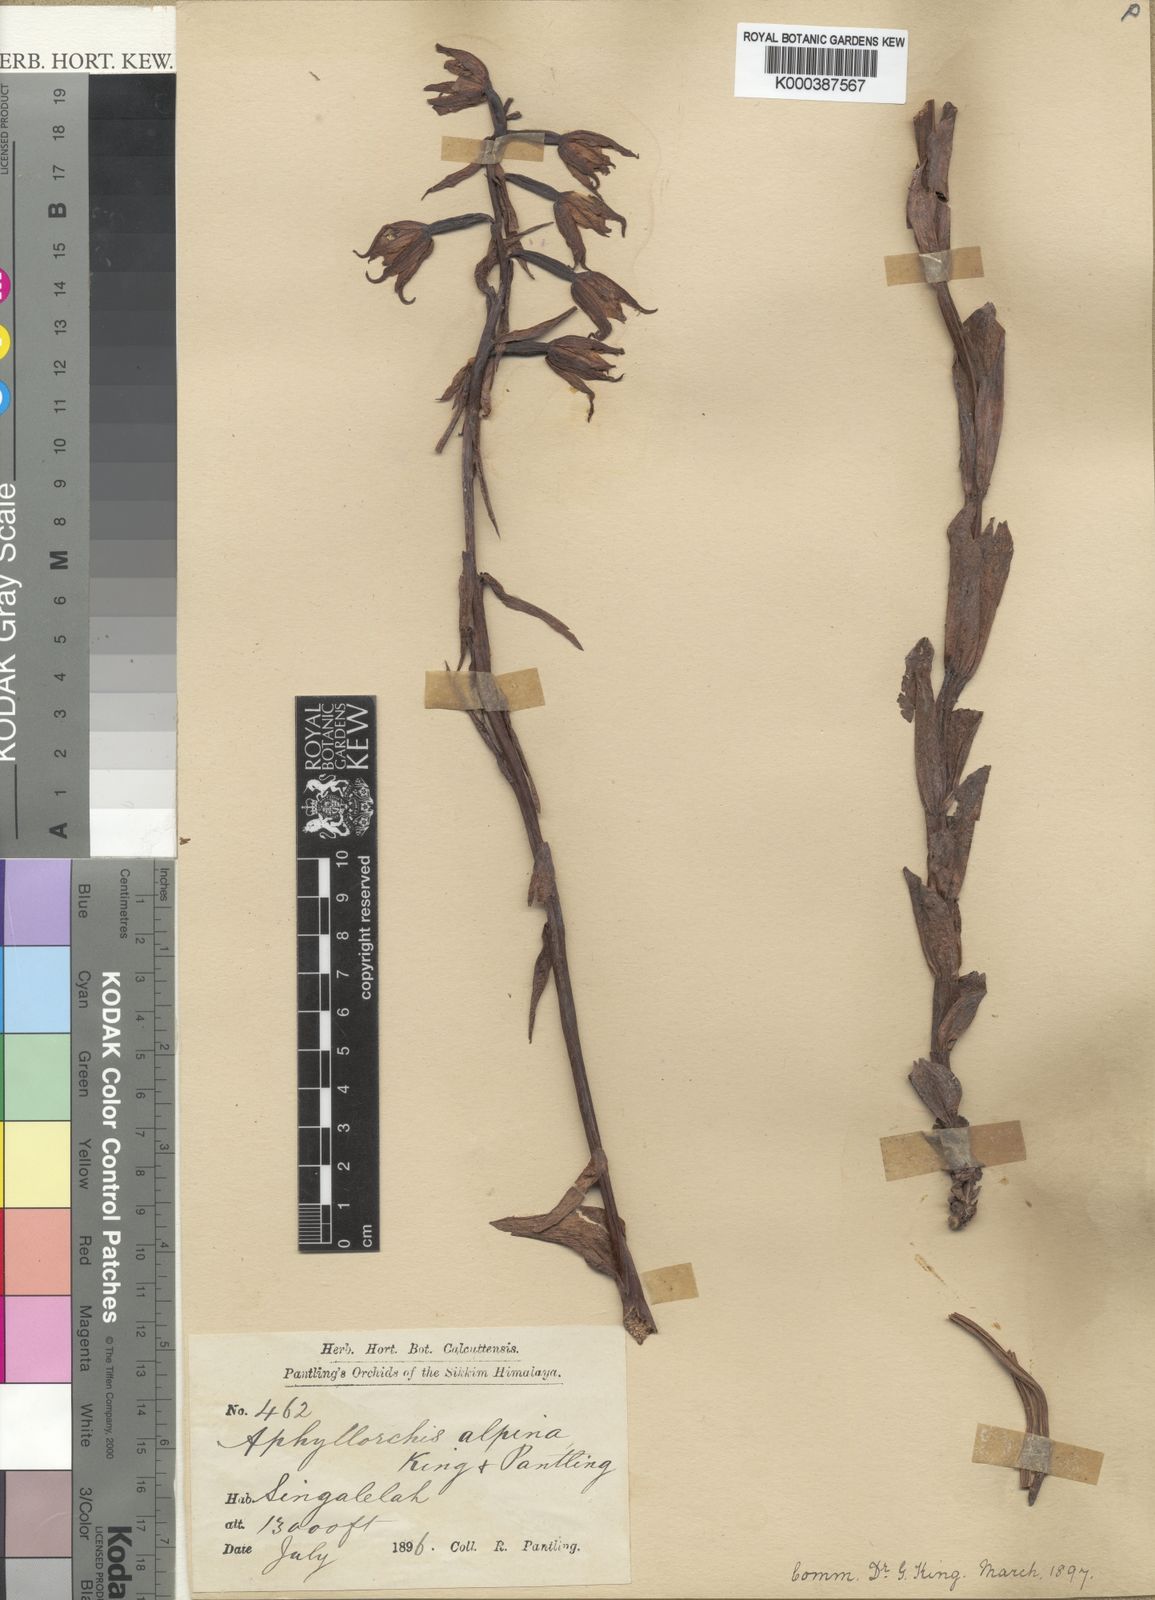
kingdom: Plantae
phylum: Tracheophyta
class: Liliopsida
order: Asparagales
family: Orchidaceae
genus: Aphyllorchis
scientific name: Aphyllorchis montana
